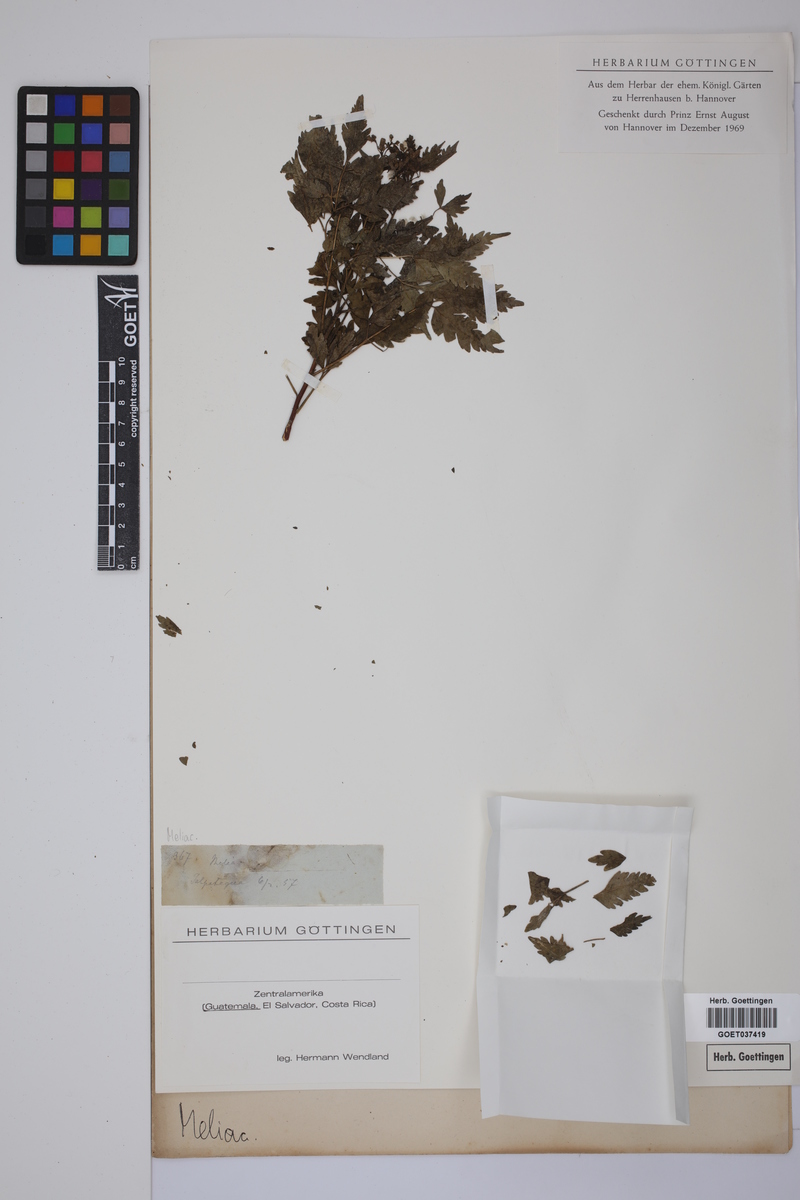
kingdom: Plantae
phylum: Tracheophyta
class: Magnoliopsida
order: Sapindales
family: Meliaceae
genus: Melia
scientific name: Melia
